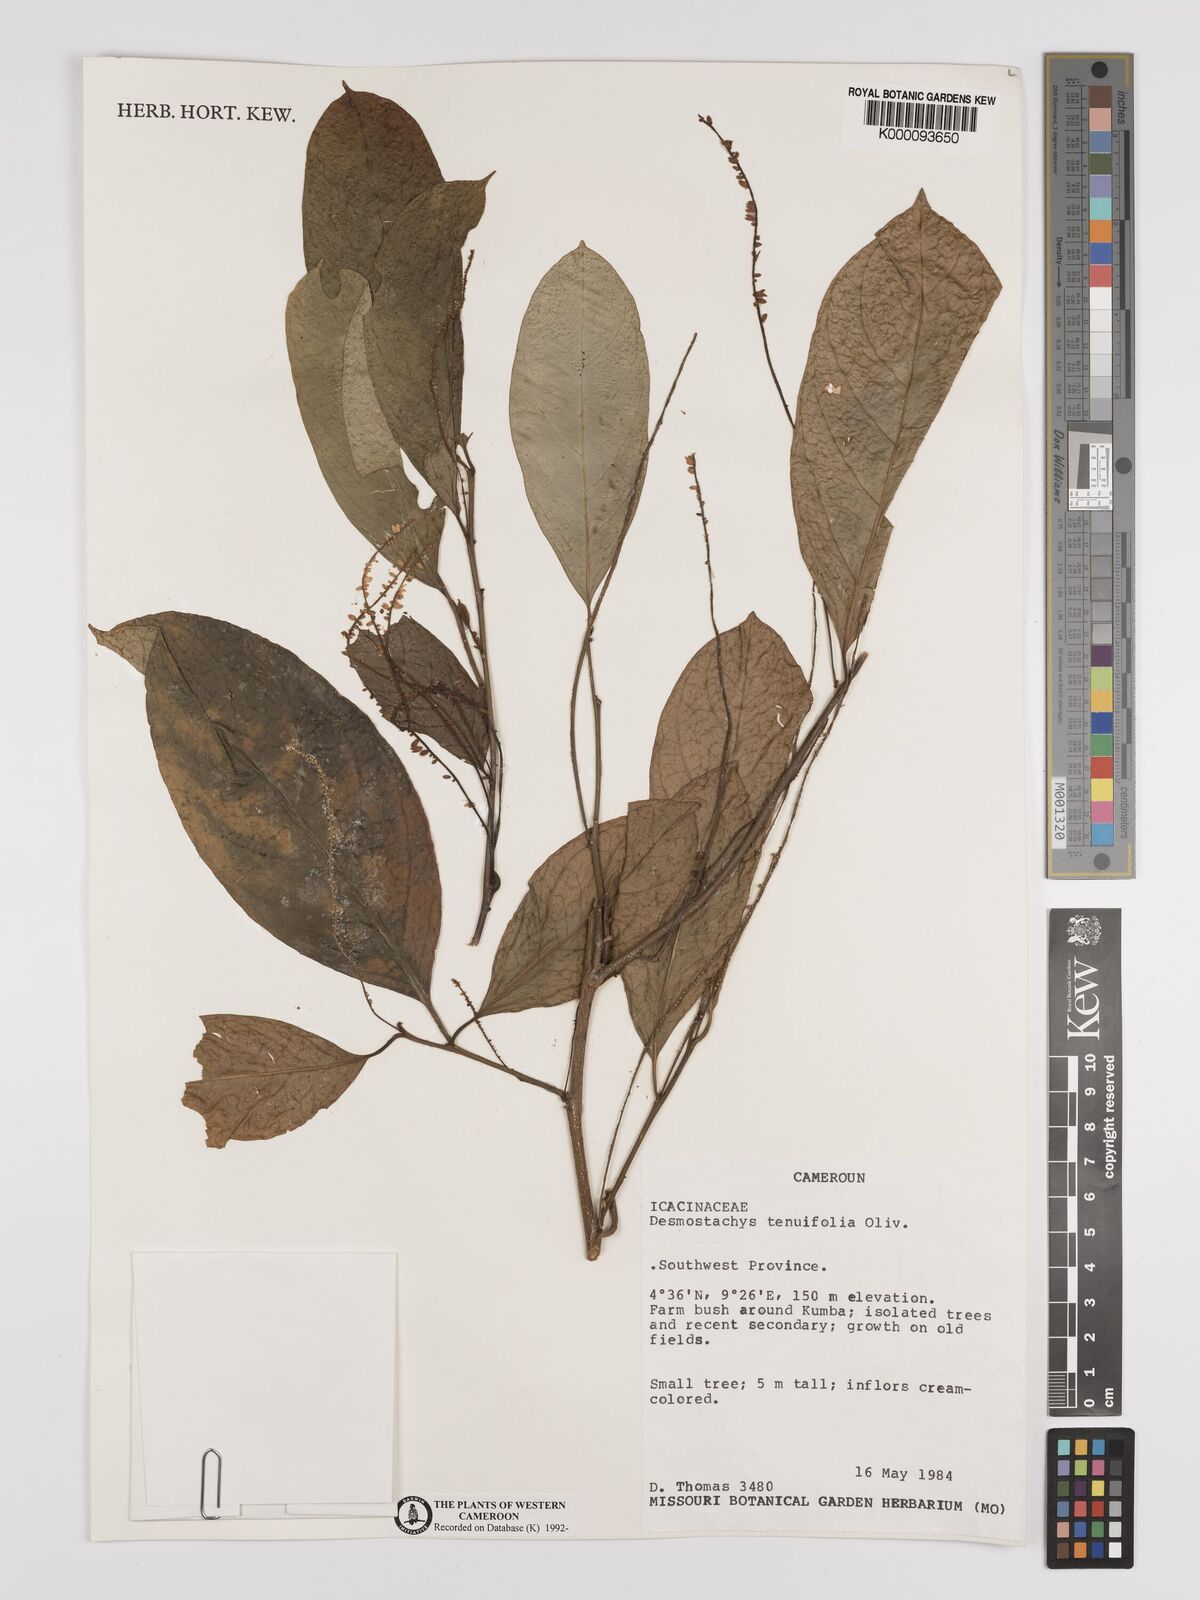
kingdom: Plantae
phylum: Tracheophyta
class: Magnoliopsida
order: Icacinales
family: Icacinaceae
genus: Vadensea
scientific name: Vadensea tenuifolia
